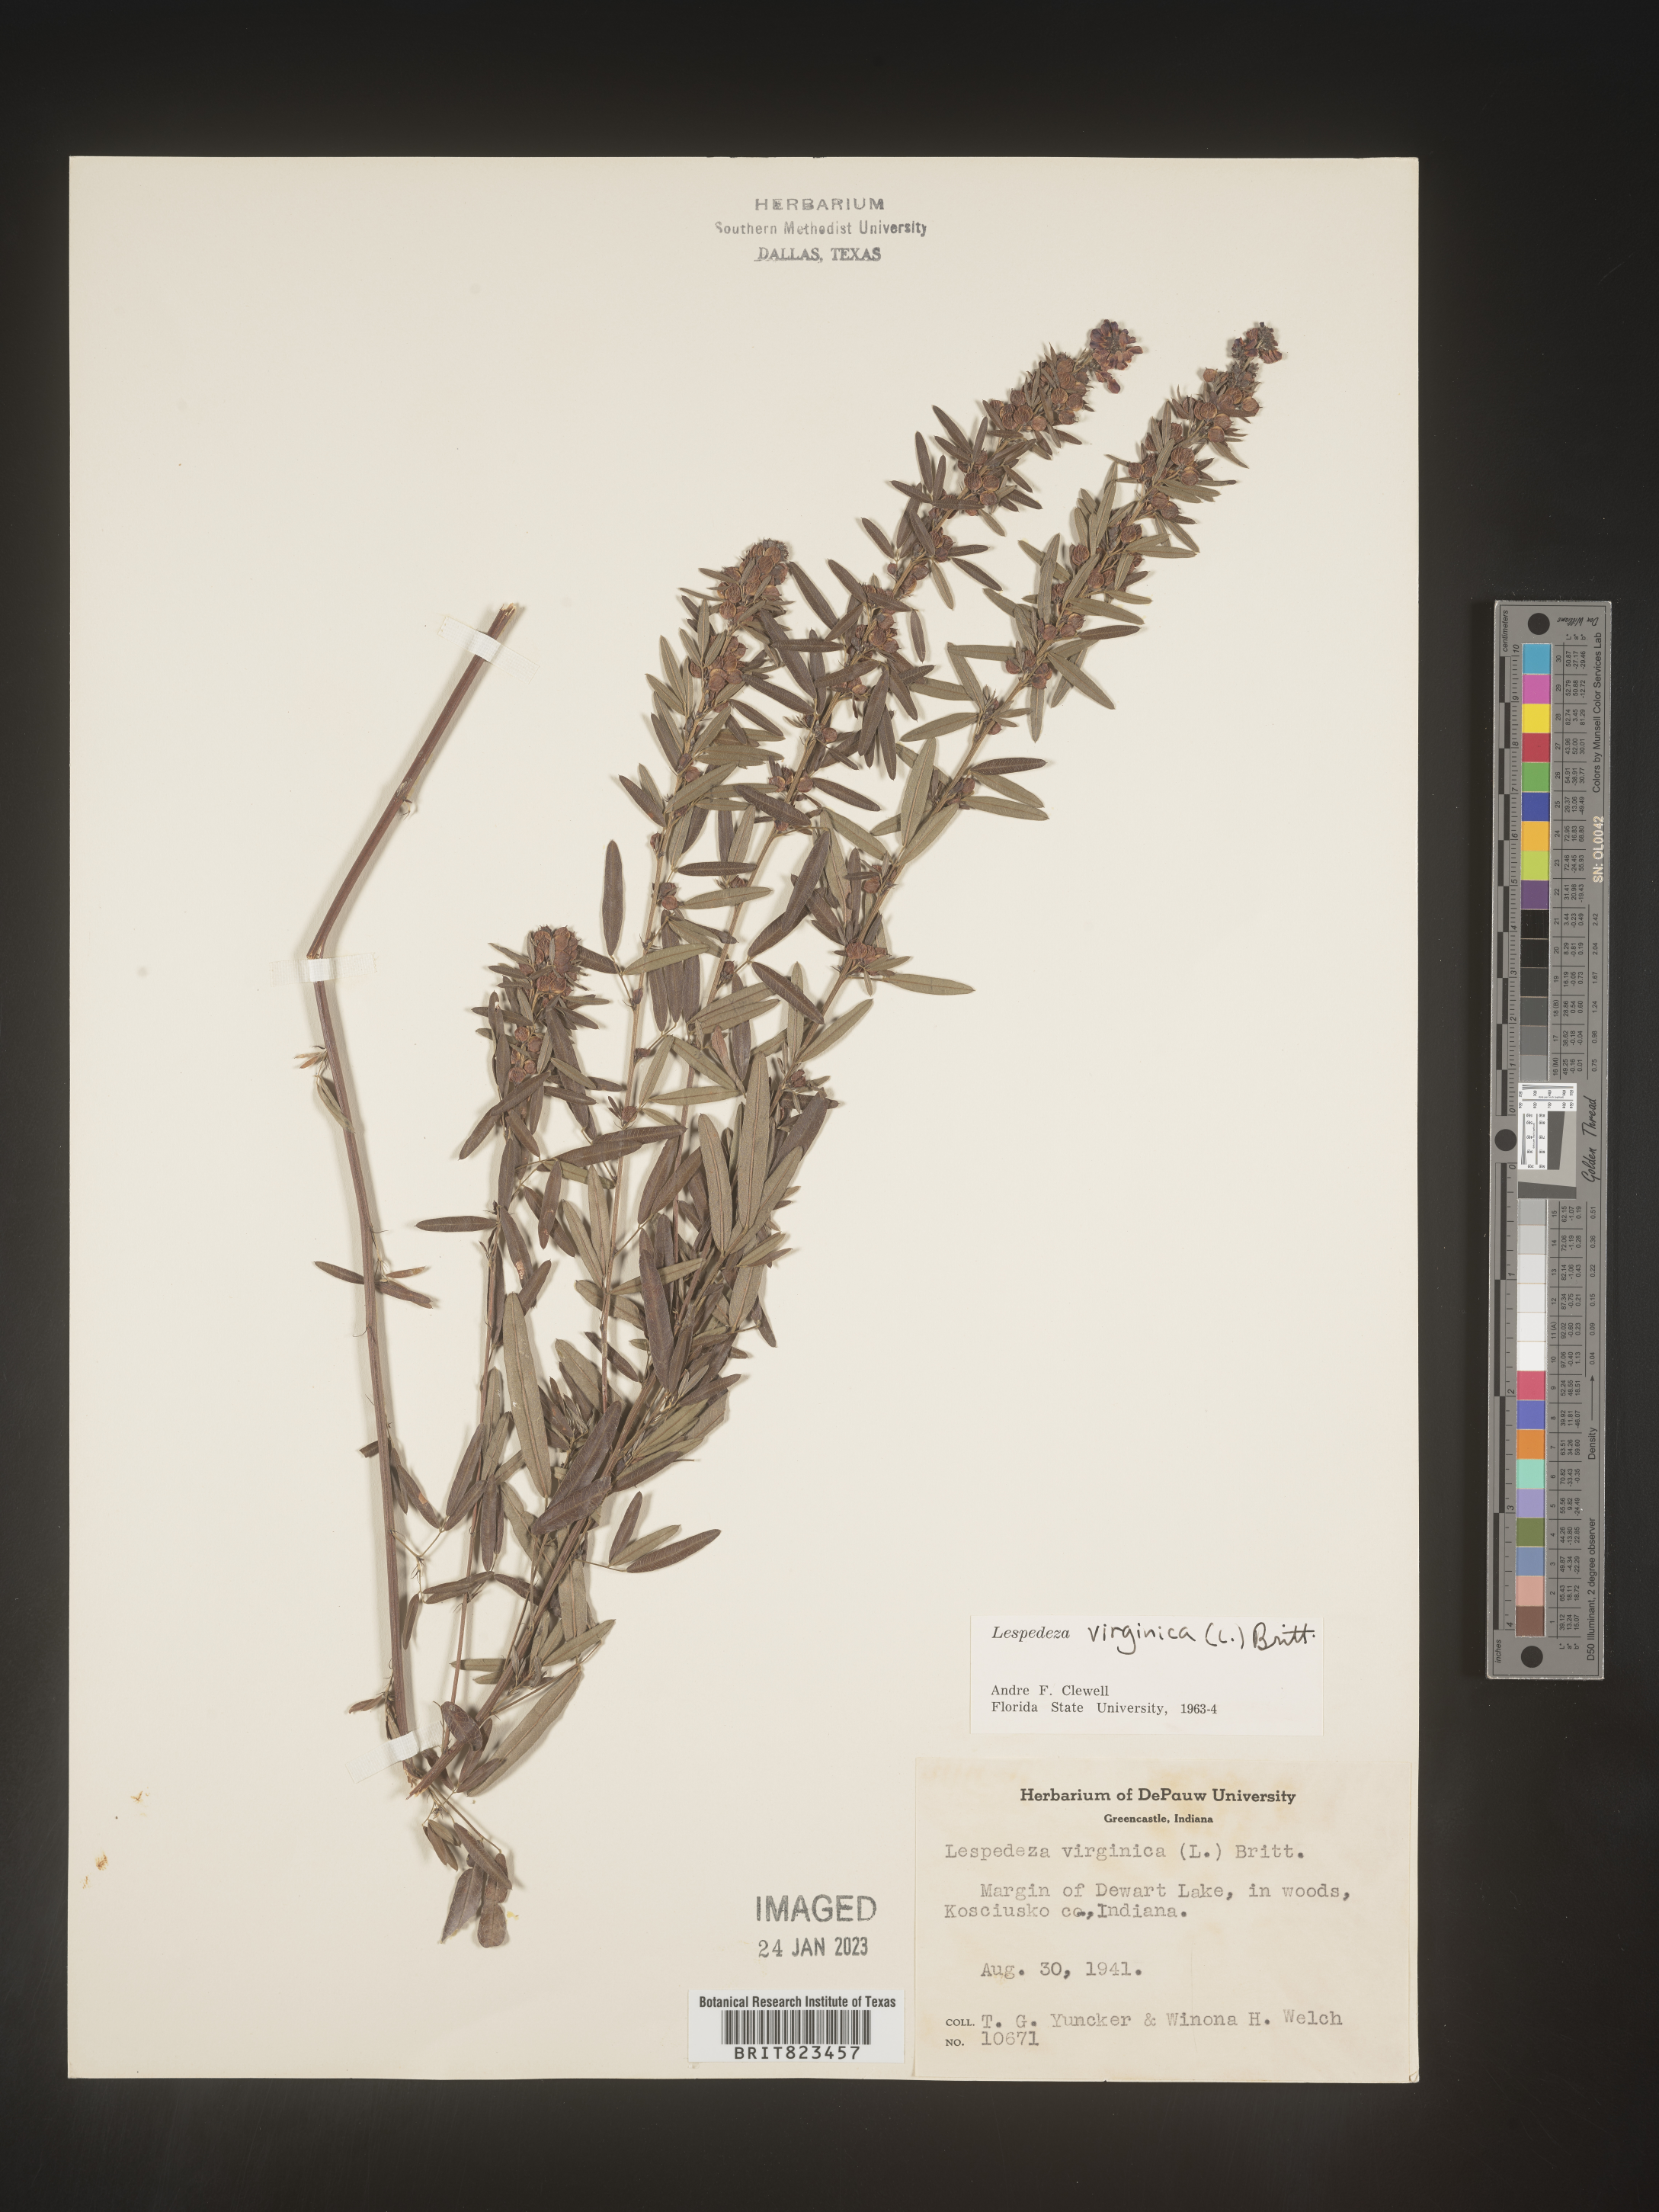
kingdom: Plantae
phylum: Tracheophyta
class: Magnoliopsida
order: Fabales
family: Fabaceae
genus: Lespedeza
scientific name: Lespedeza virginica
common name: Slender bush-clover
